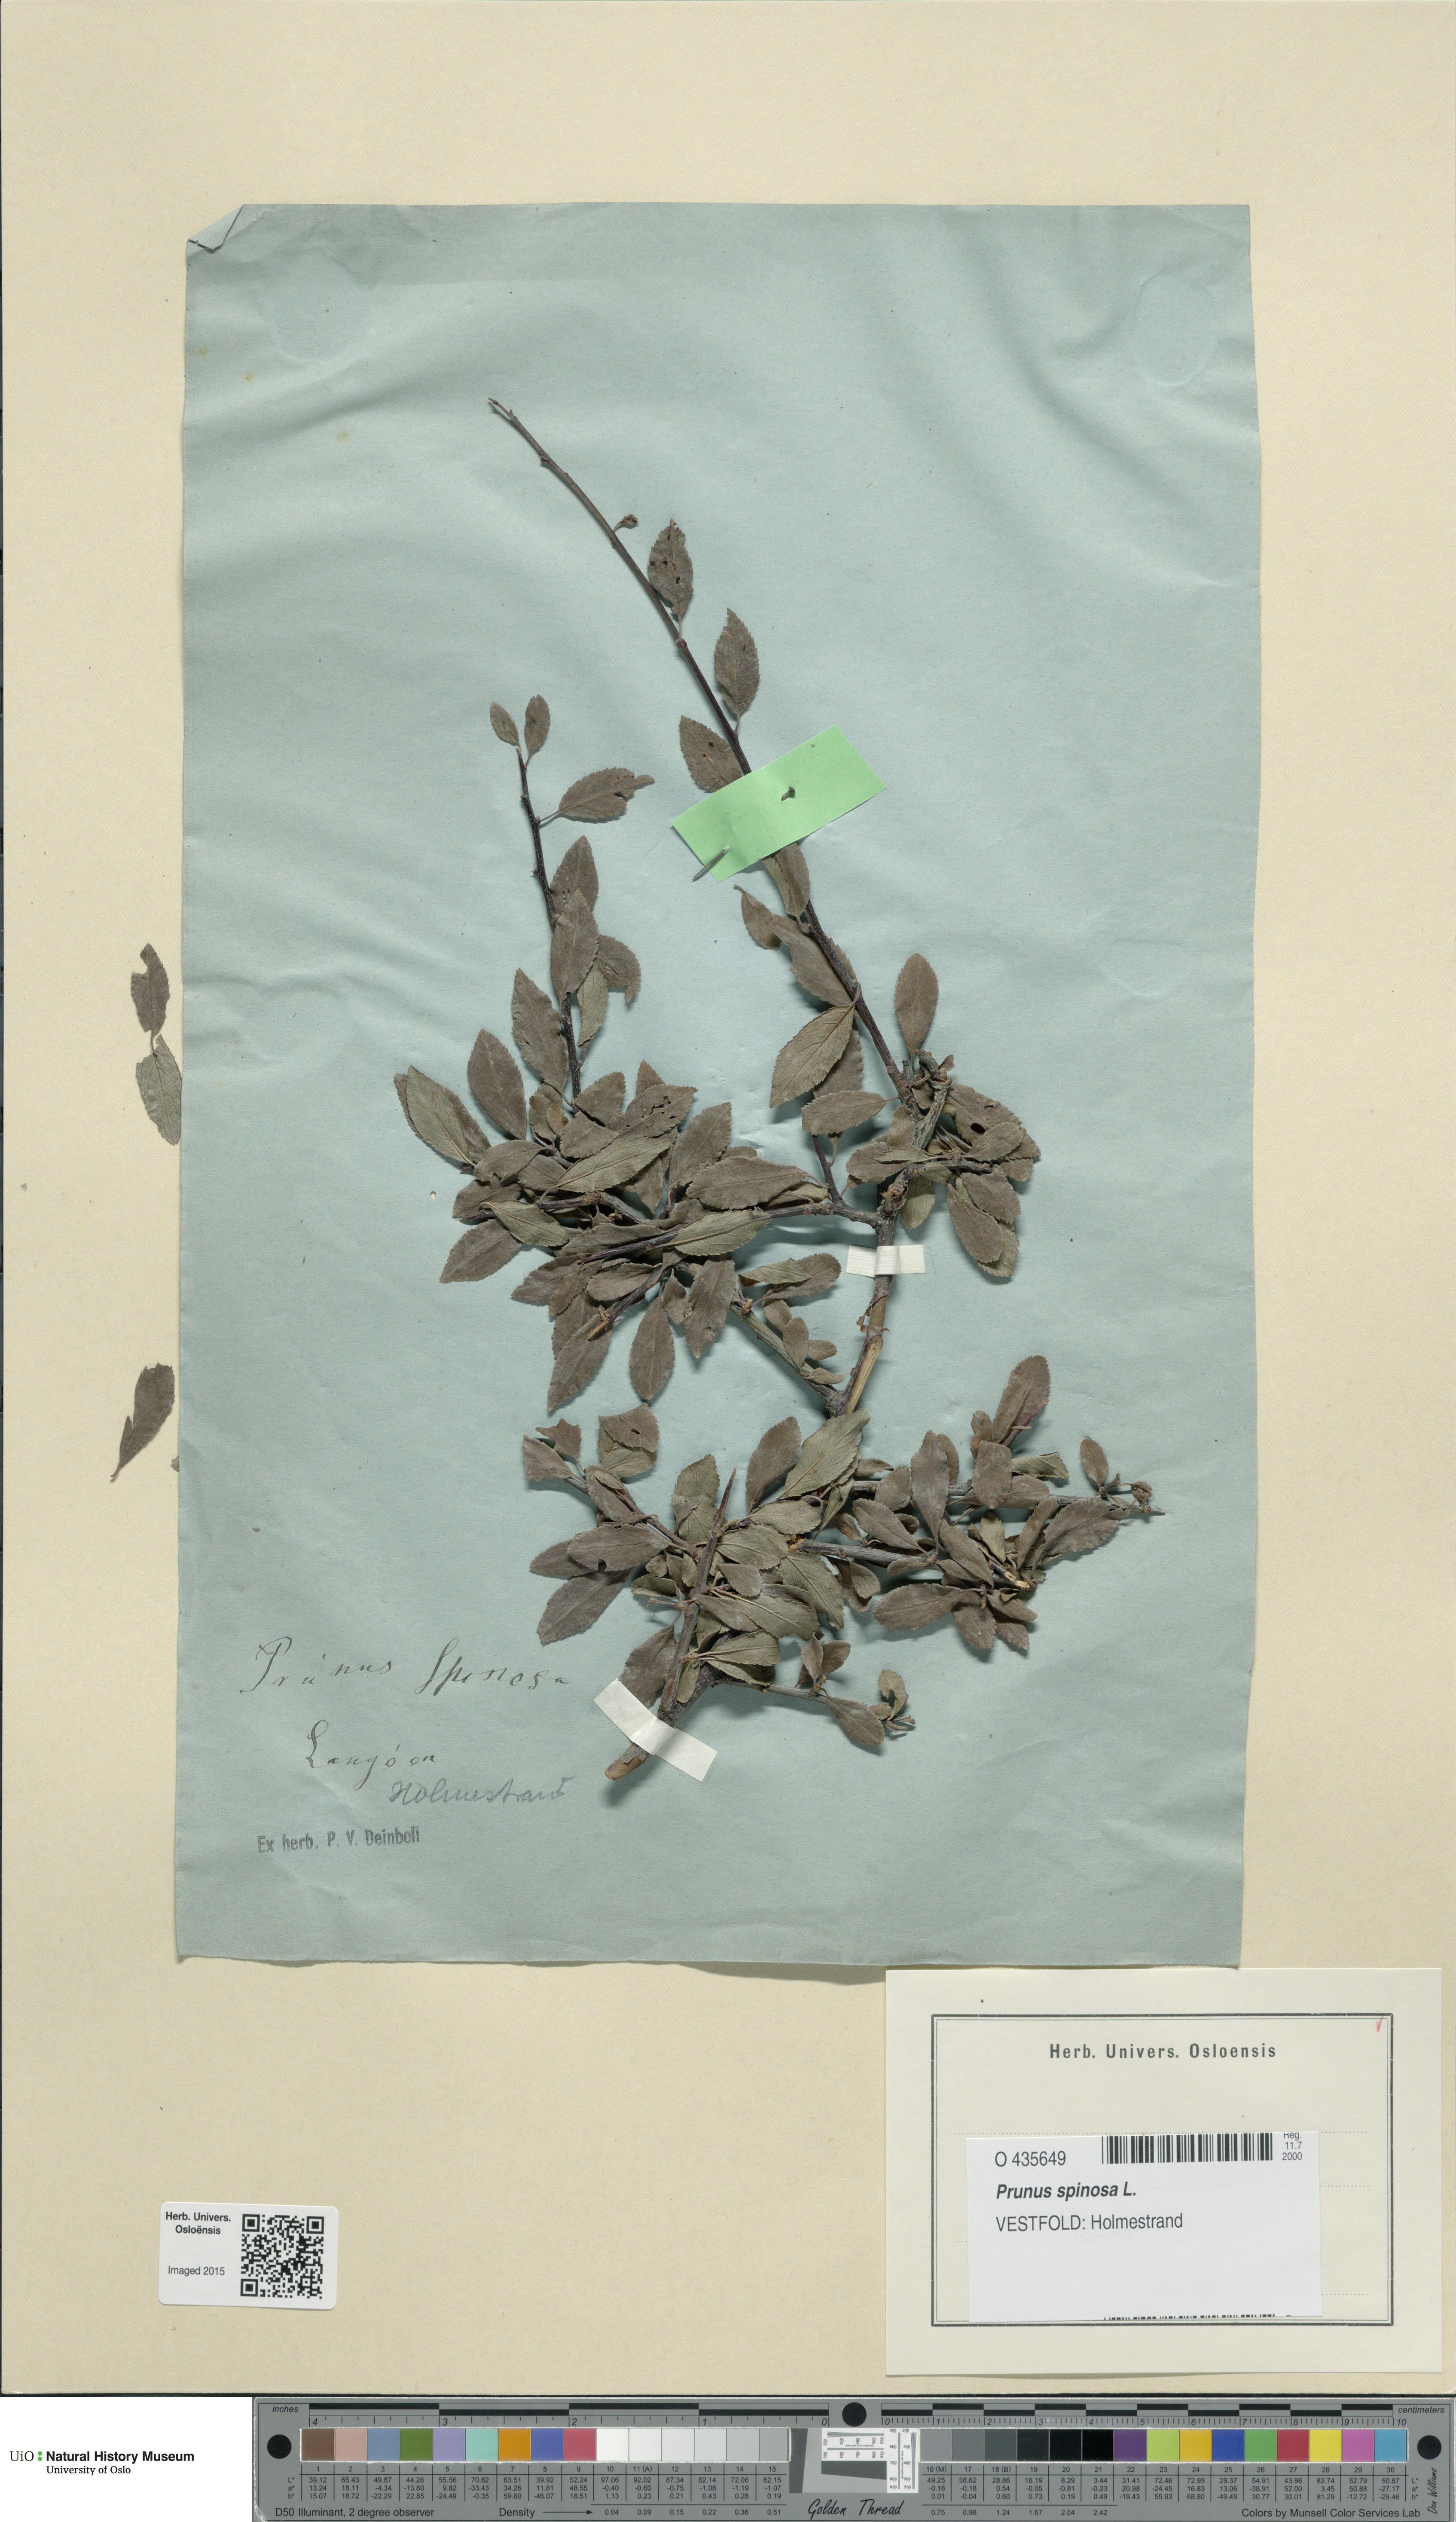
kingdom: Plantae
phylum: Tracheophyta
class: Magnoliopsida
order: Rosales
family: Rosaceae
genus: Prunus
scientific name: Prunus spinosa
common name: Blackthorn
